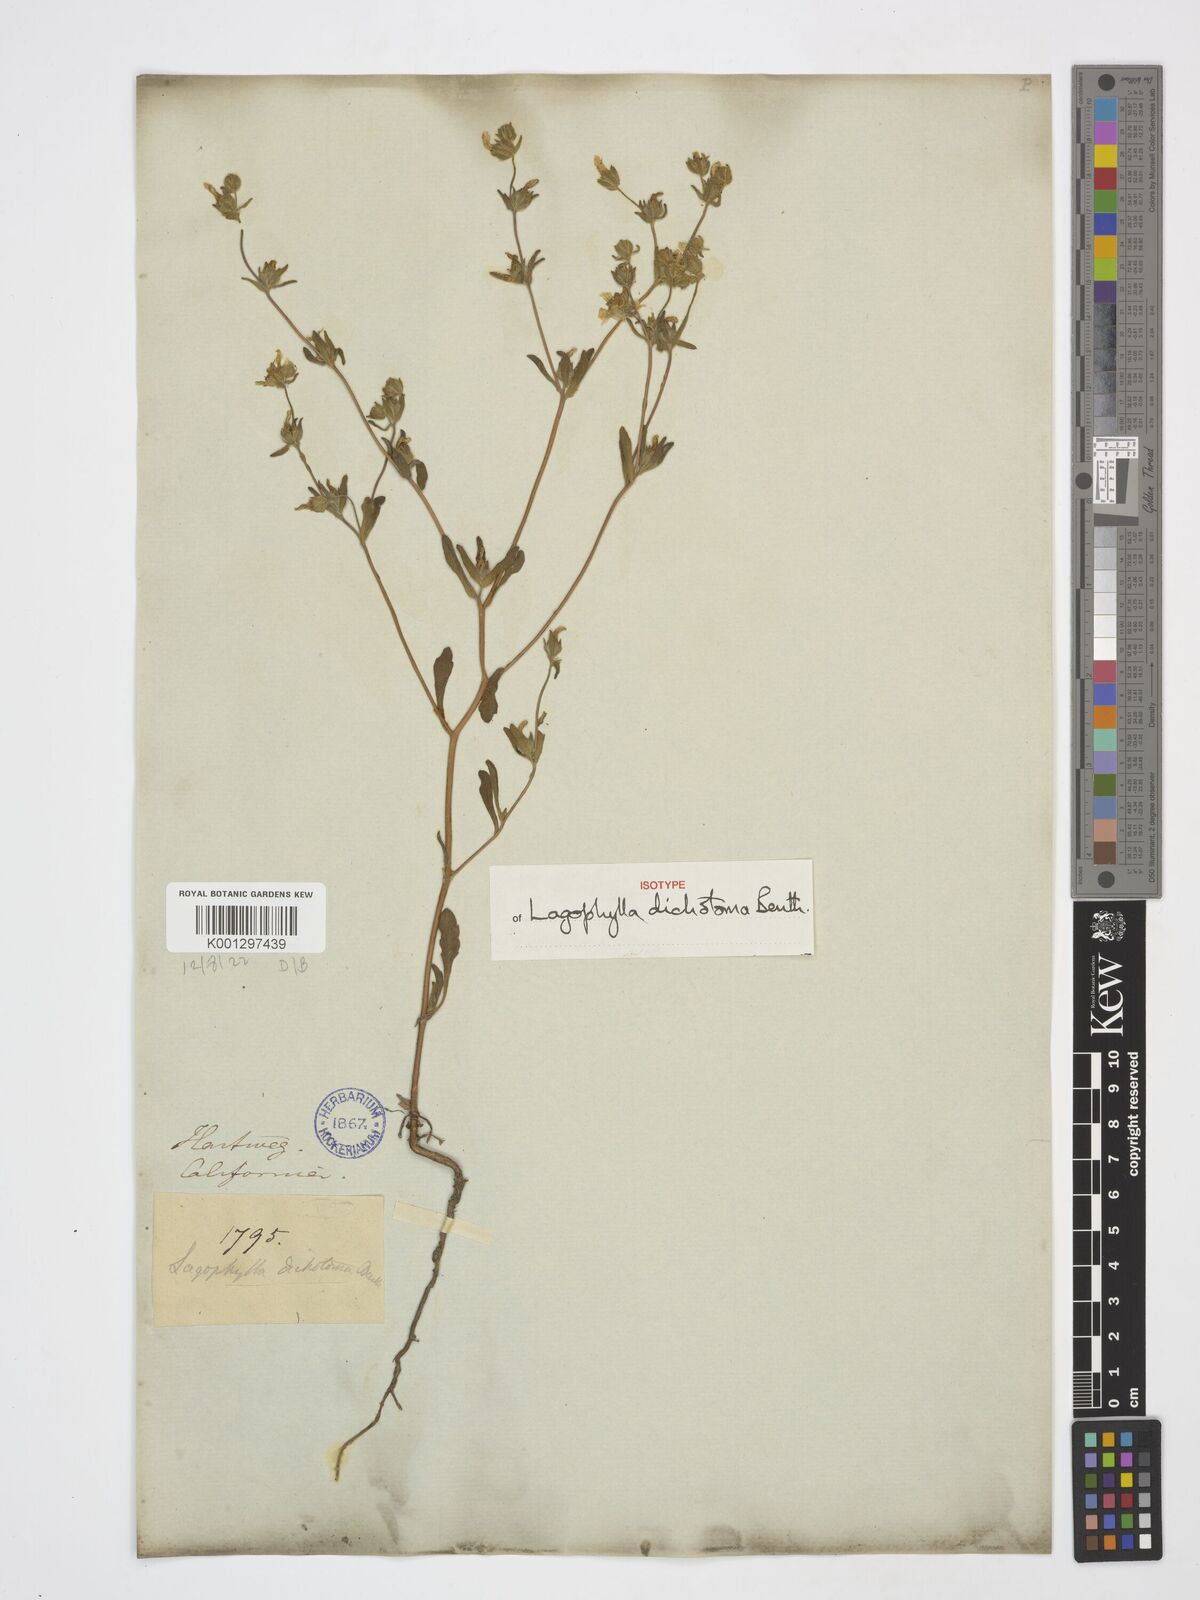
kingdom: Plantae
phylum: Tracheophyta
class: Magnoliopsida
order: Asterales
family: Asteraceae
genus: Lagophylla
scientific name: Lagophylla dichotoma
